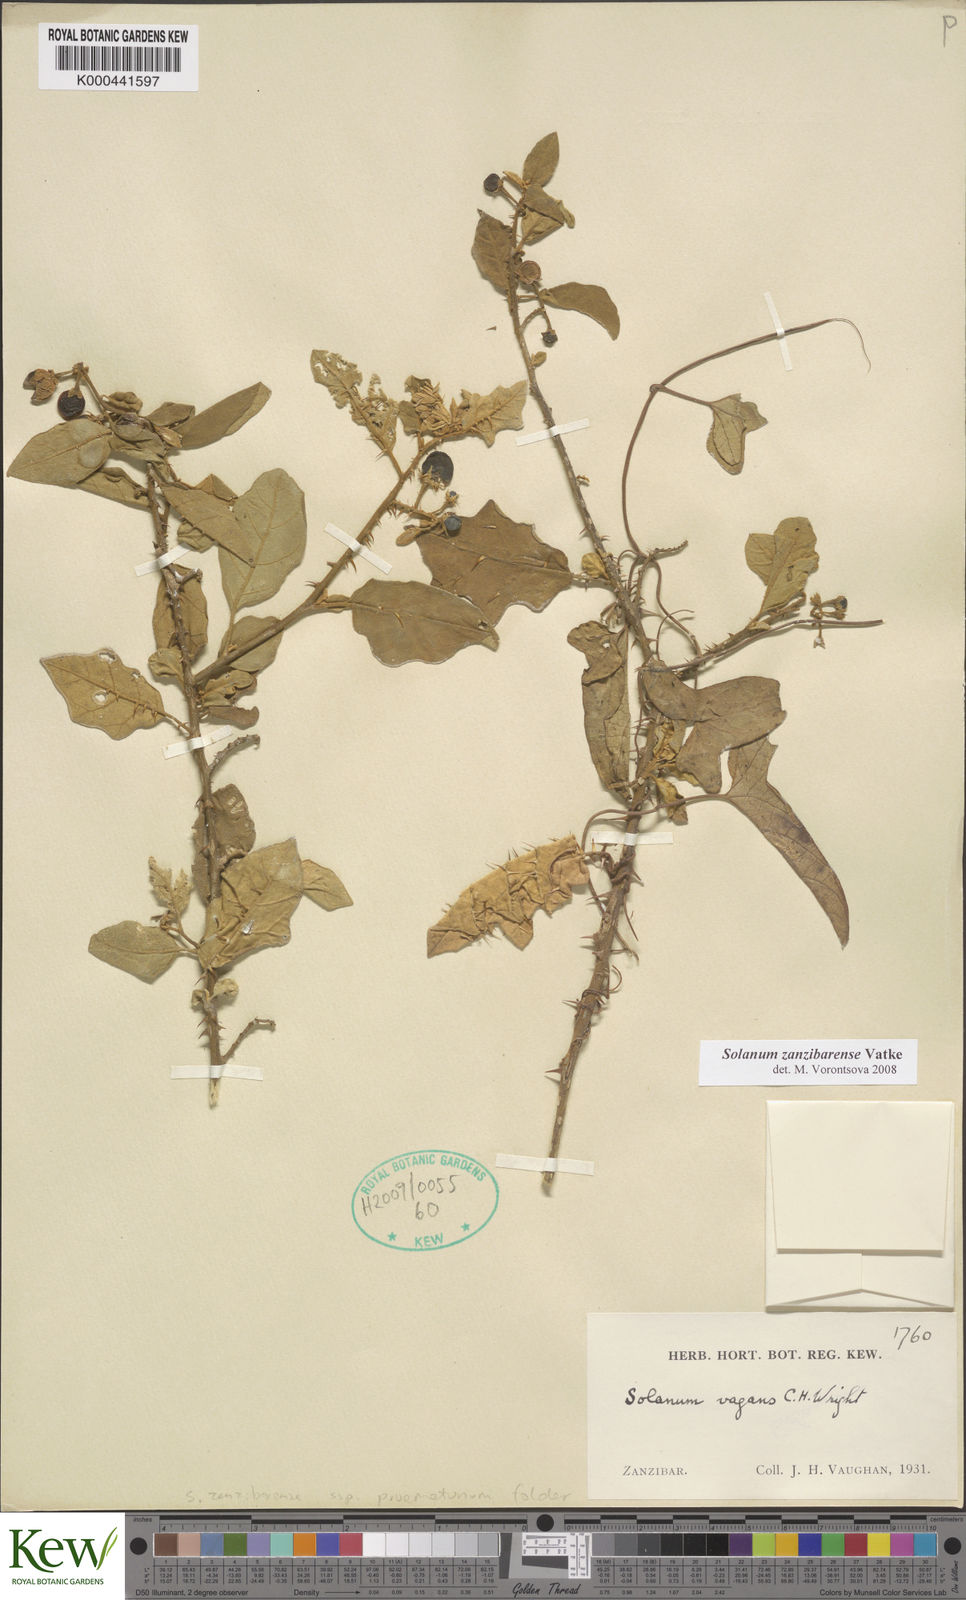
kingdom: Plantae
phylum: Tracheophyta
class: Magnoliopsida
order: Solanales
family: Solanaceae
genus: Solanum
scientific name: Solanum zanzibarense
